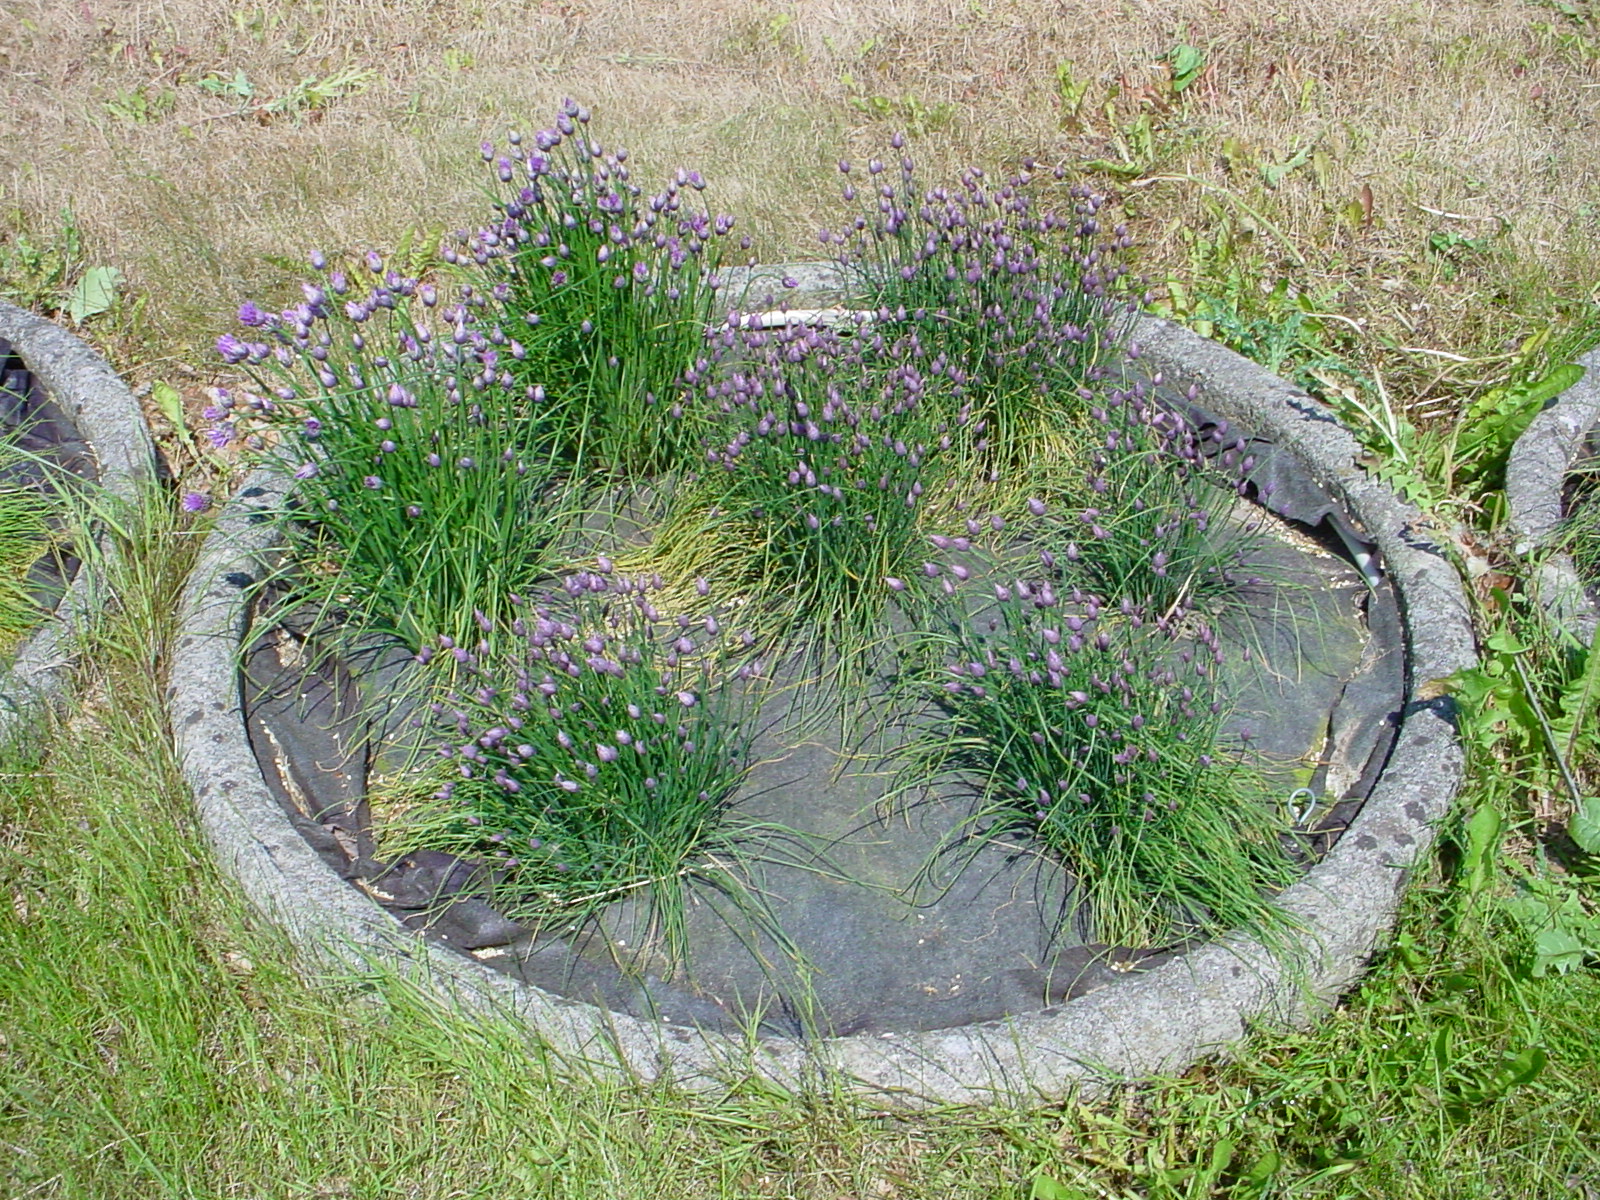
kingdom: Plantae
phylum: Tracheophyta
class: Liliopsida
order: Asparagales
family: Amaryllidaceae
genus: Allium
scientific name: Allium schoenoprasum
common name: Chives
